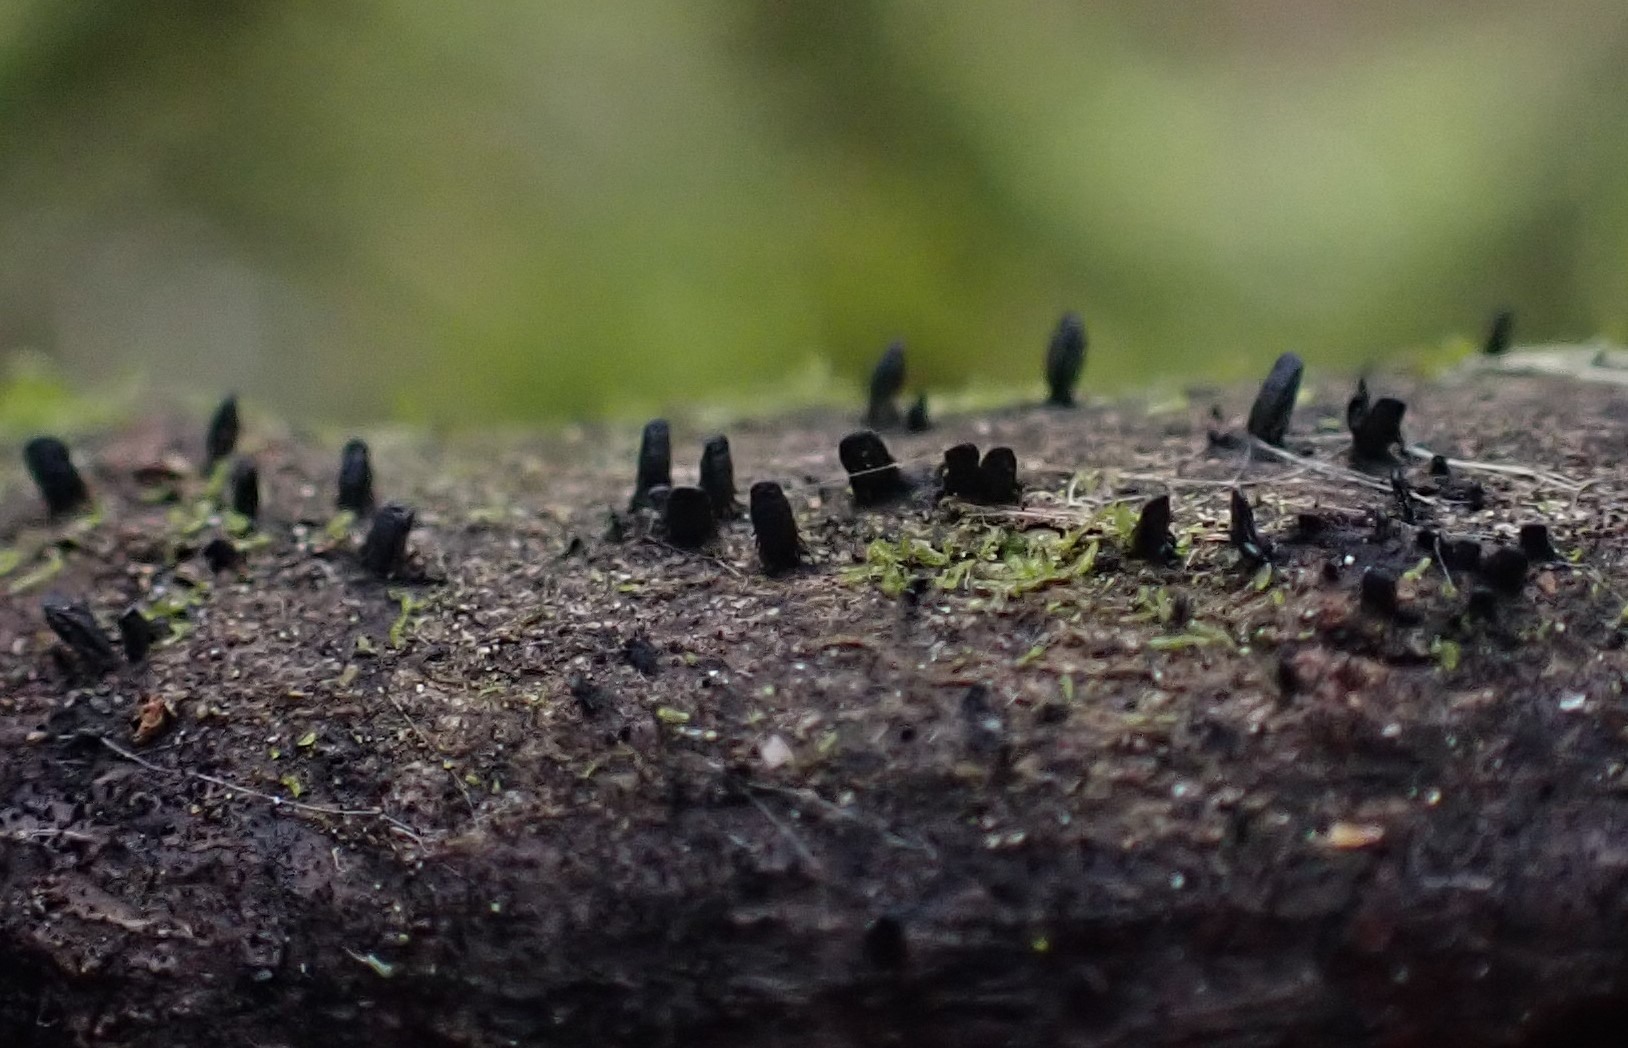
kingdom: Fungi
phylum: Ascomycota
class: Eurotiomycetes
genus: Glyphium
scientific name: Glyphium elatum
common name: kuløkse
